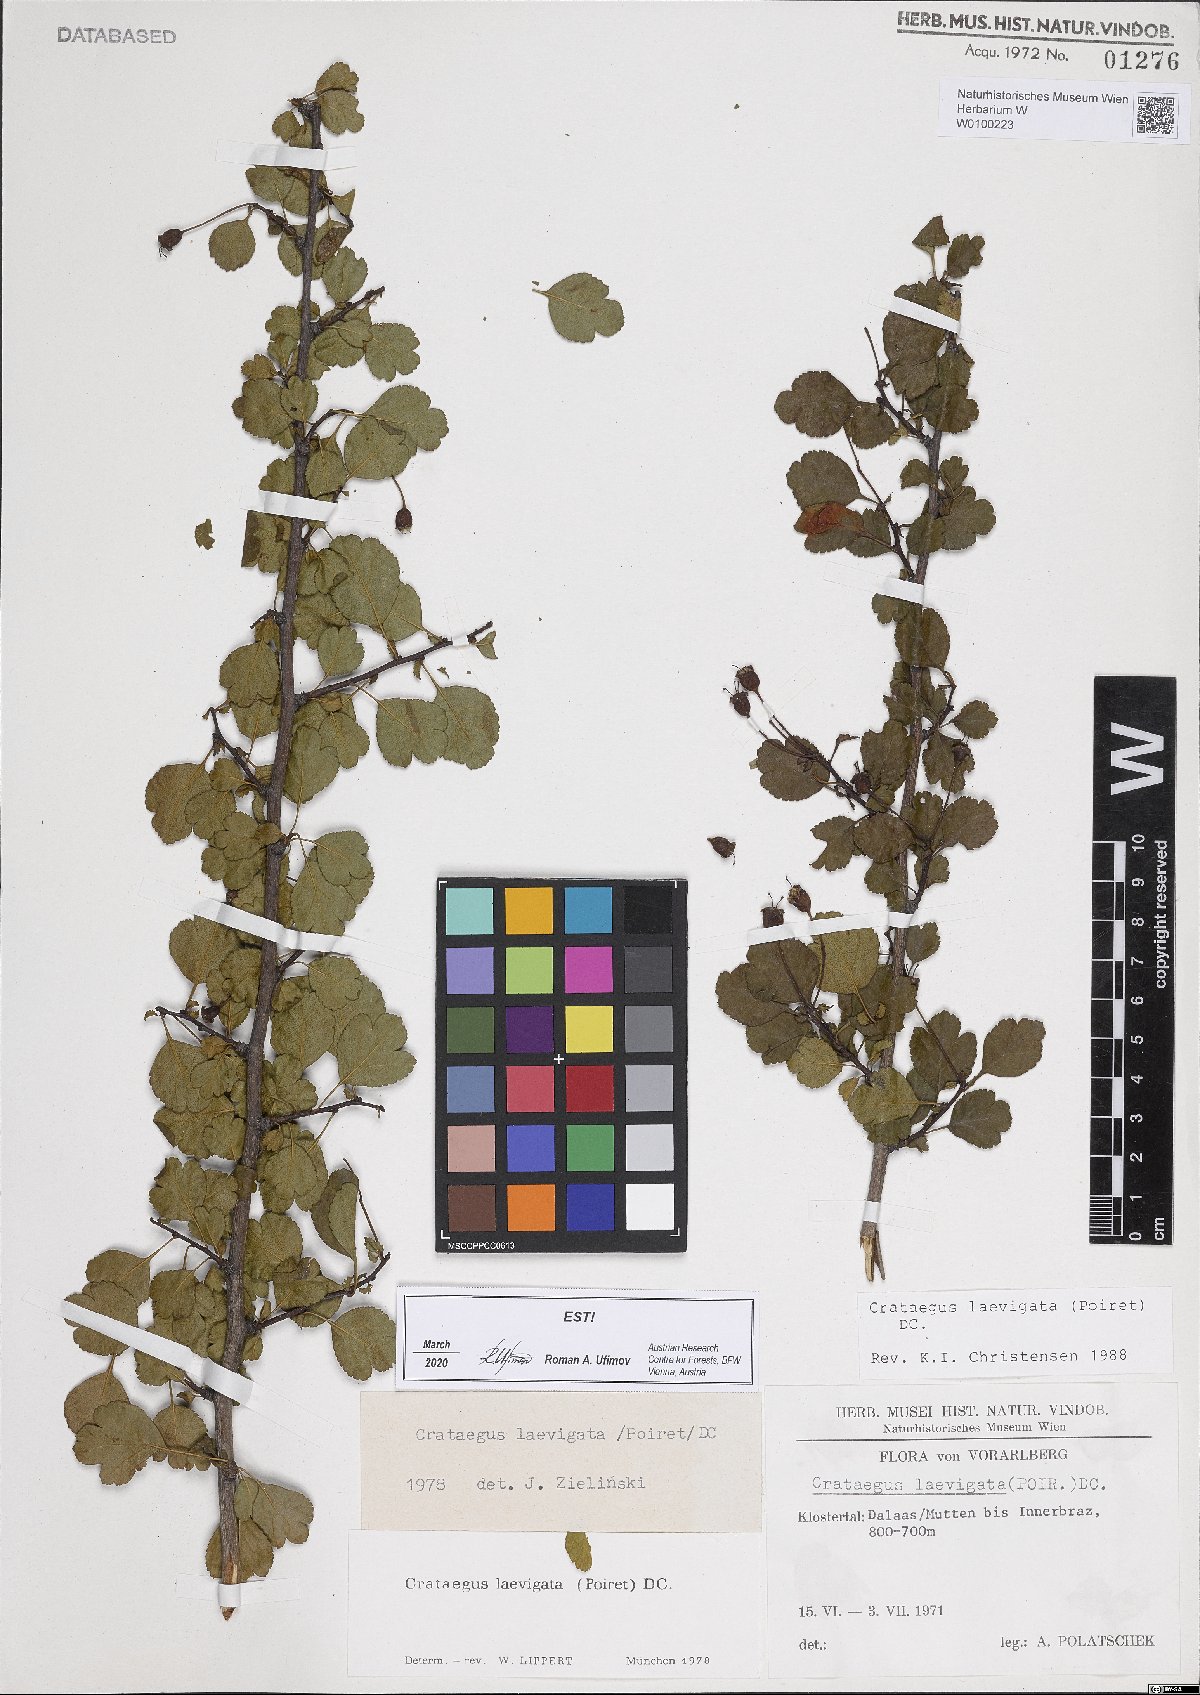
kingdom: Plantae
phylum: Tracheophyta
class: Magnoliopsida
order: Rosales
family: Rosaceae
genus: Crataegus
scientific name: Crataegus laevigata
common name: Midland hawthorn
